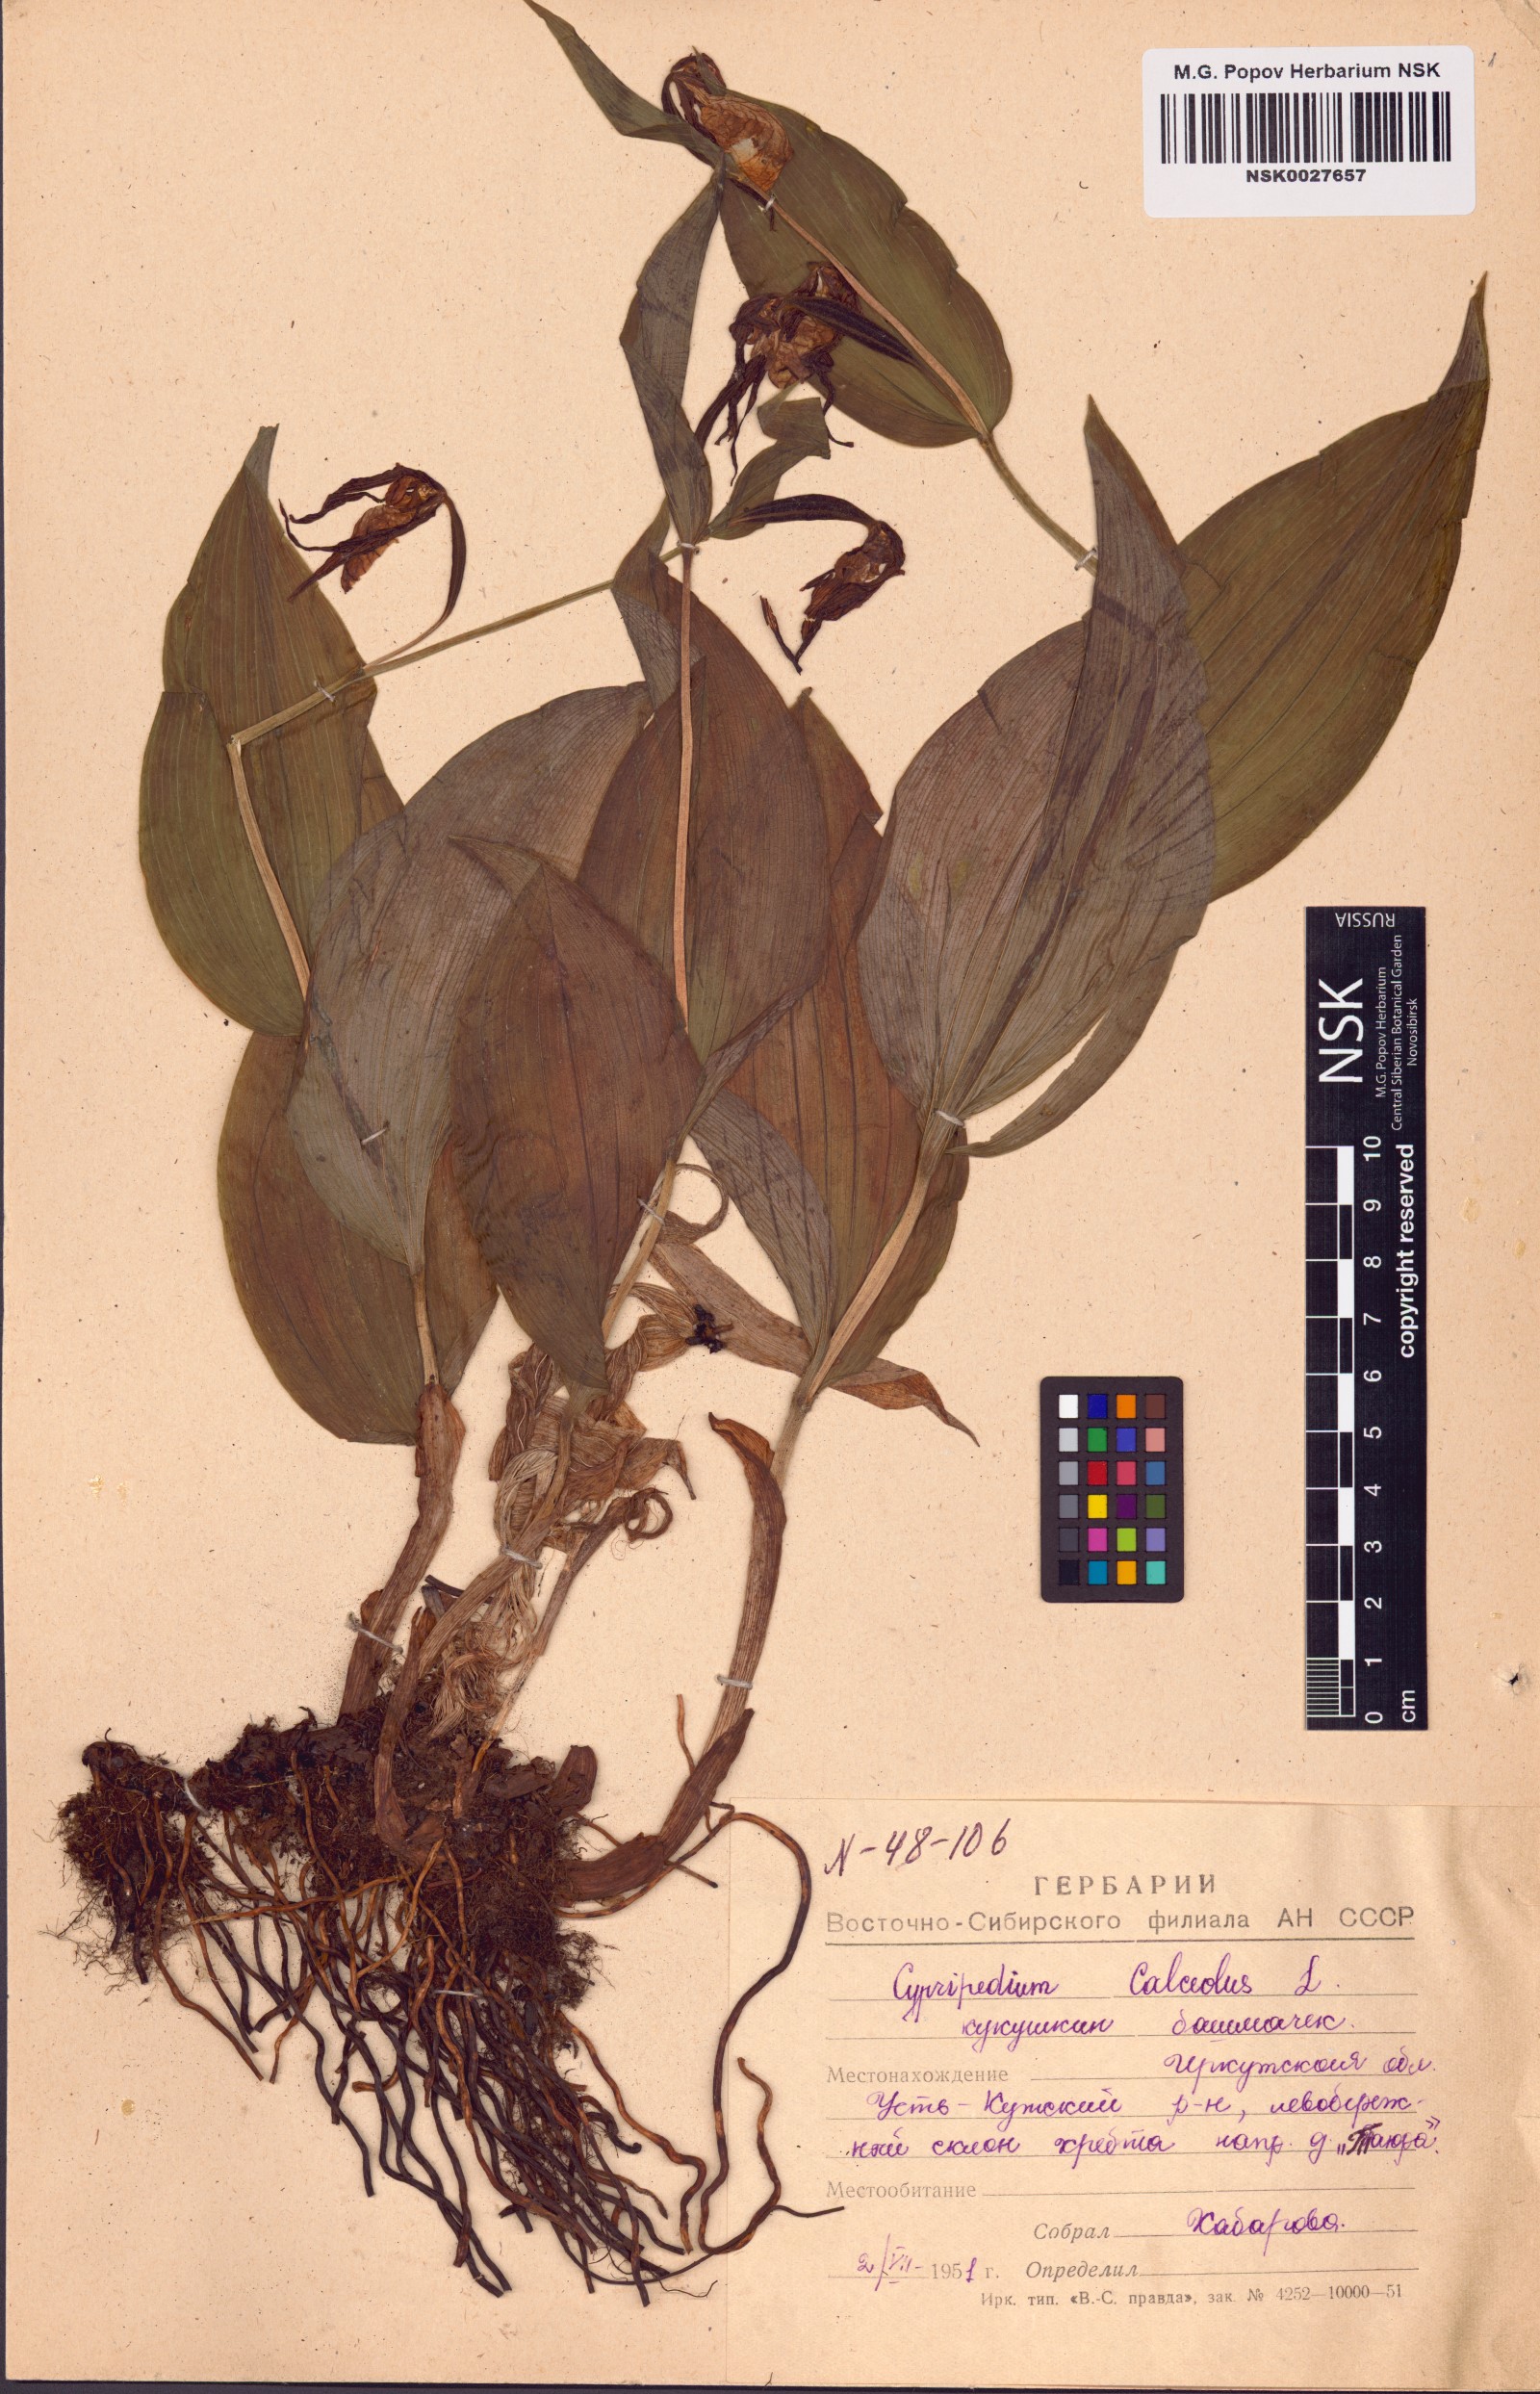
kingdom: Plantae
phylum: Tracheophyta
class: Liliopsida
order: Asparagales
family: Orchidaceae
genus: Cypripedium
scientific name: Cypripedium calceolus
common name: Lady's-slipper
